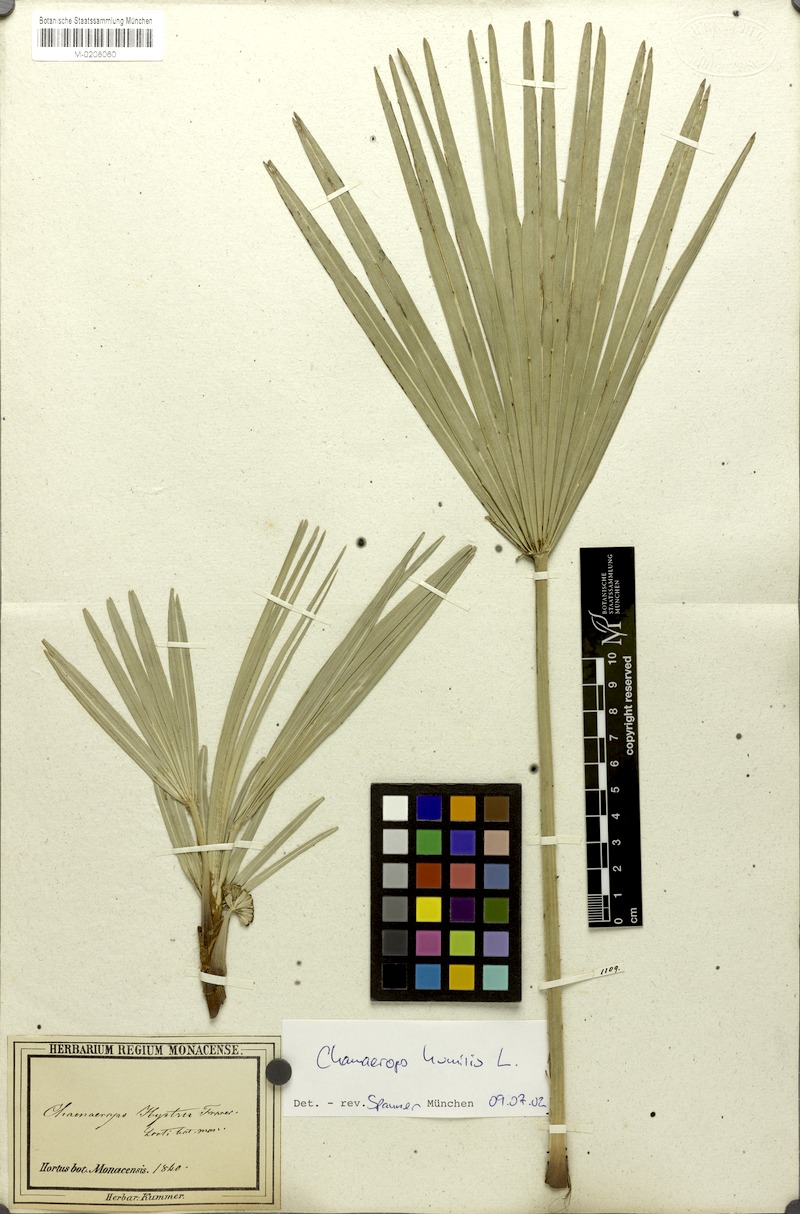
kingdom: Plantae
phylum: Tracheophyta
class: Liliopsida
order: Arecales
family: Arecaceae
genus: Chamaerops
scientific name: Chamaerops humilis
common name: Dwarf fan palm
